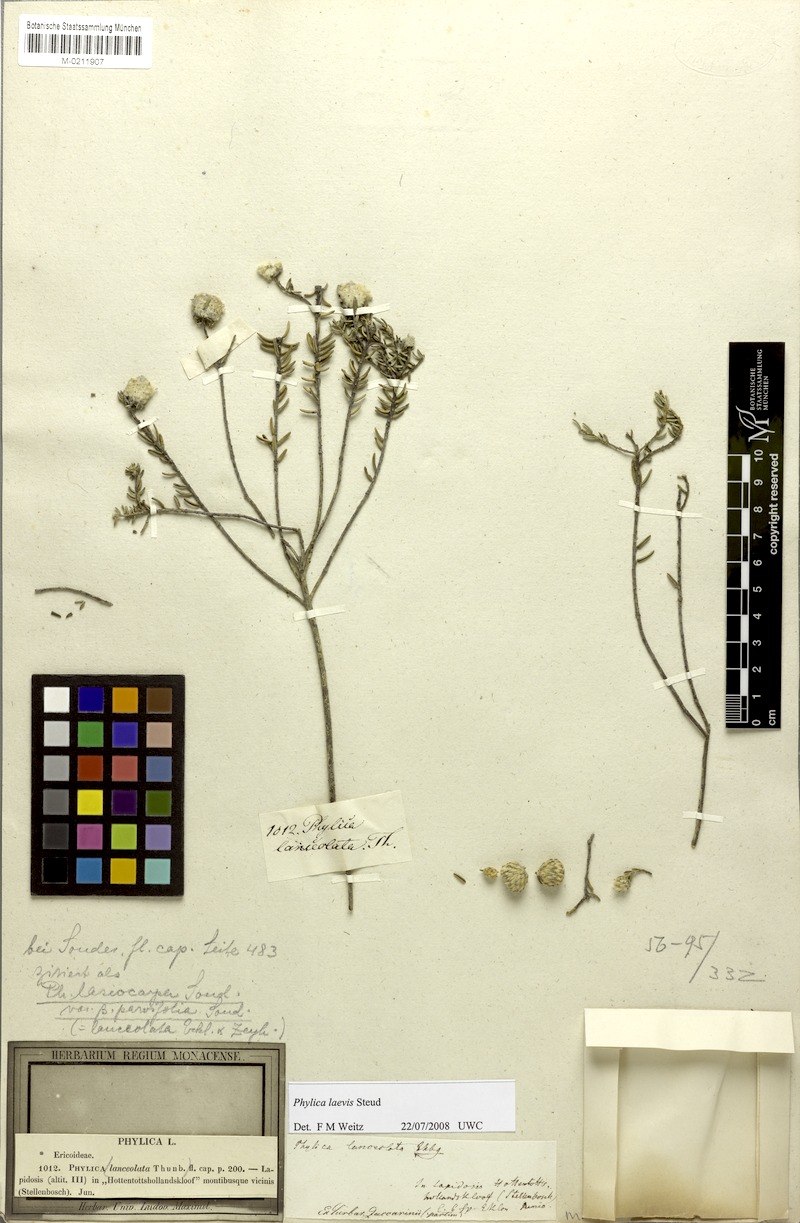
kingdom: Plantae
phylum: Tracheophyta
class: Magnoliopsida
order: Rosales
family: Rhamnaceae
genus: Phylica
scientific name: Phylica laevis
